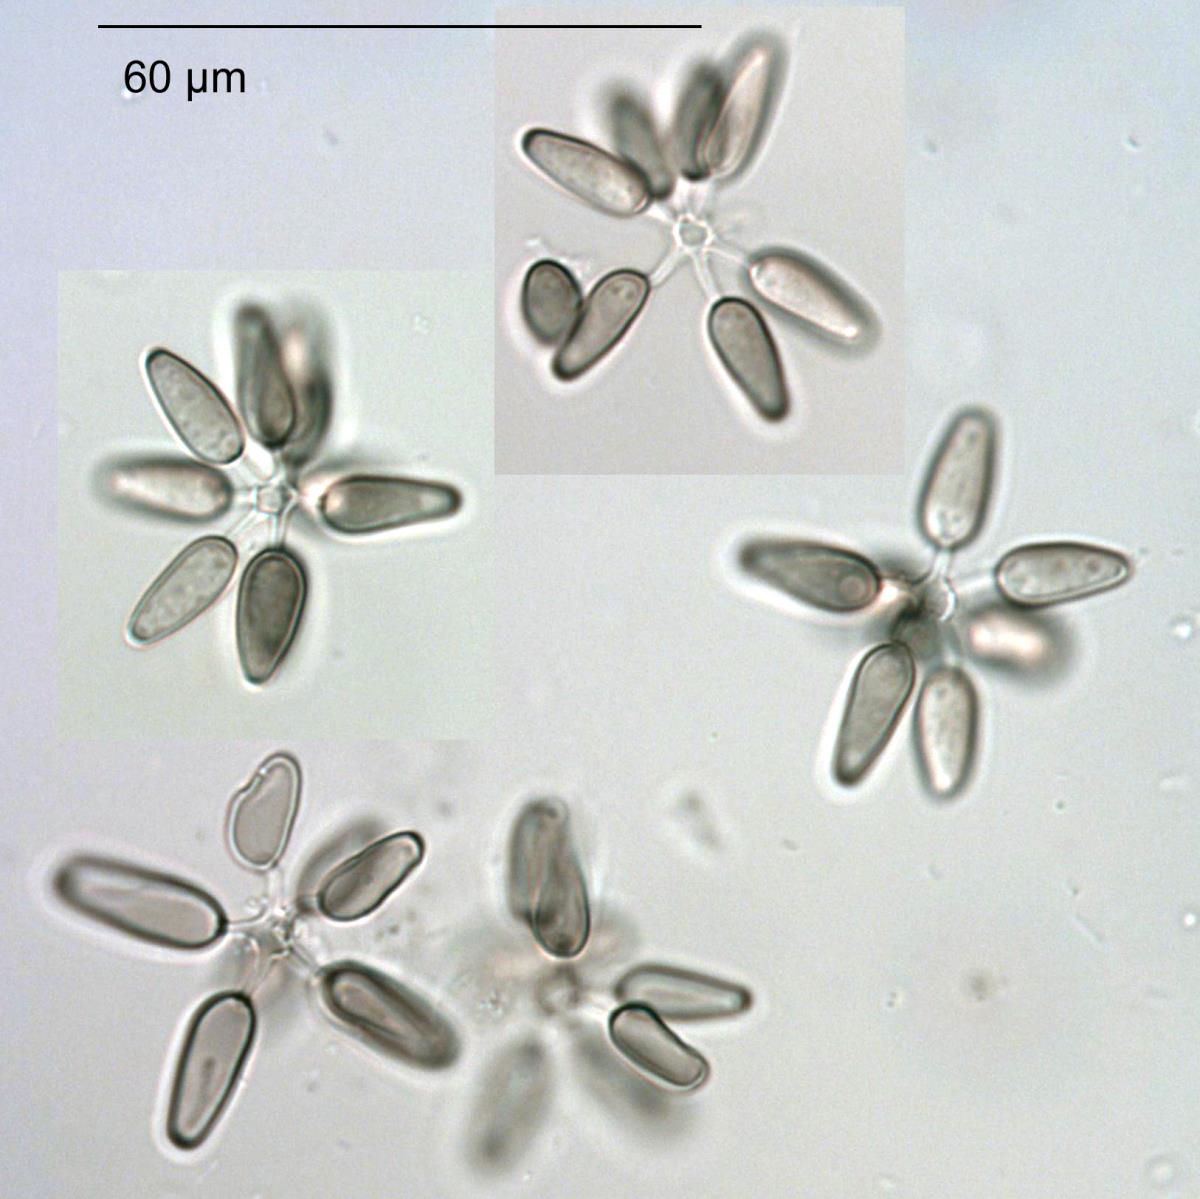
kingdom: Fungi
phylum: Ascomycota
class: Dothideomycetes
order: Pleosporales
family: Pleosporaceae
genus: Asteromyces
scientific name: Asteromyces cruciatus
